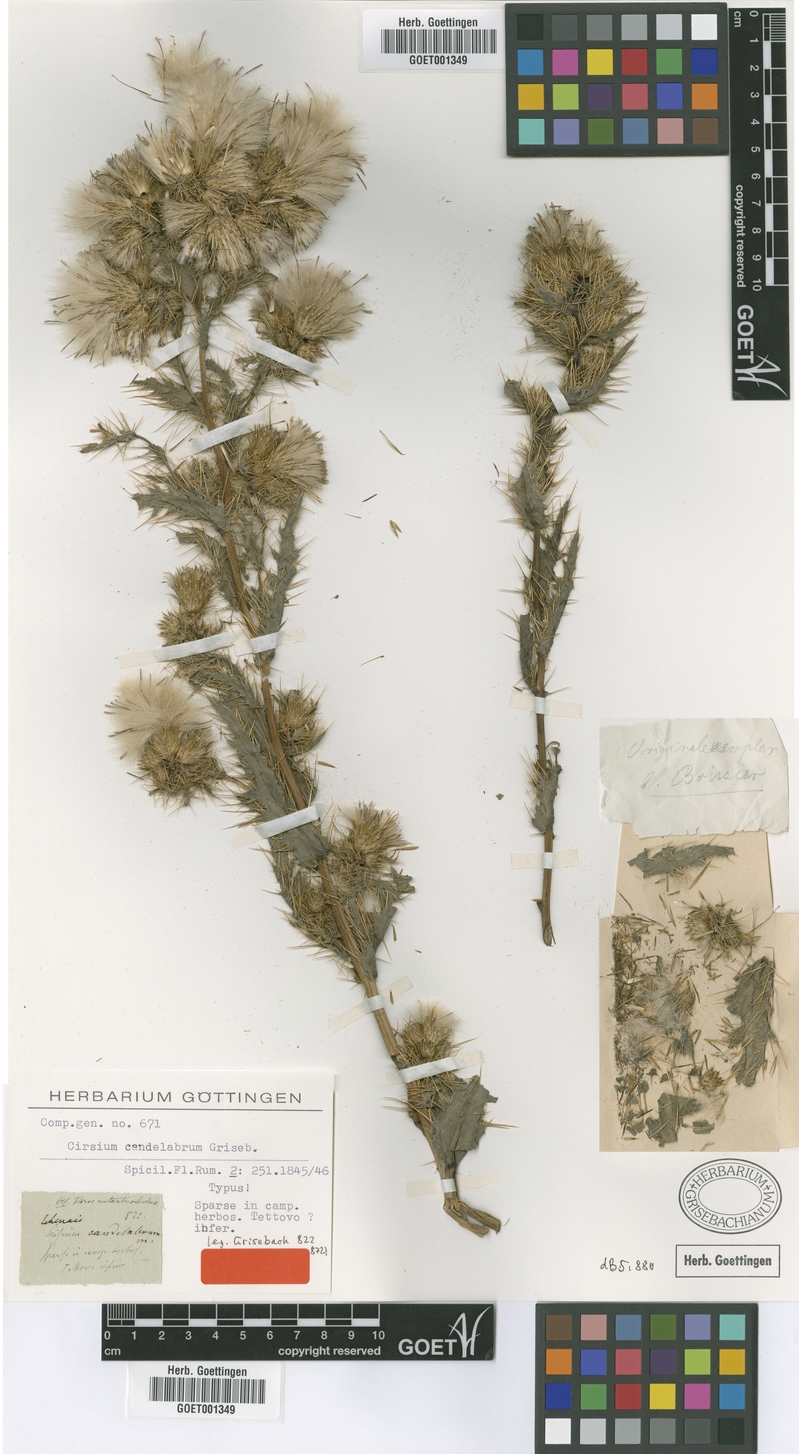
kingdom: Plantae
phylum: Tracheophyta
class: Magnoliopsida
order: Asterales
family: Asteraceae
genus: Cirsium
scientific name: Cirsium candelabrum
